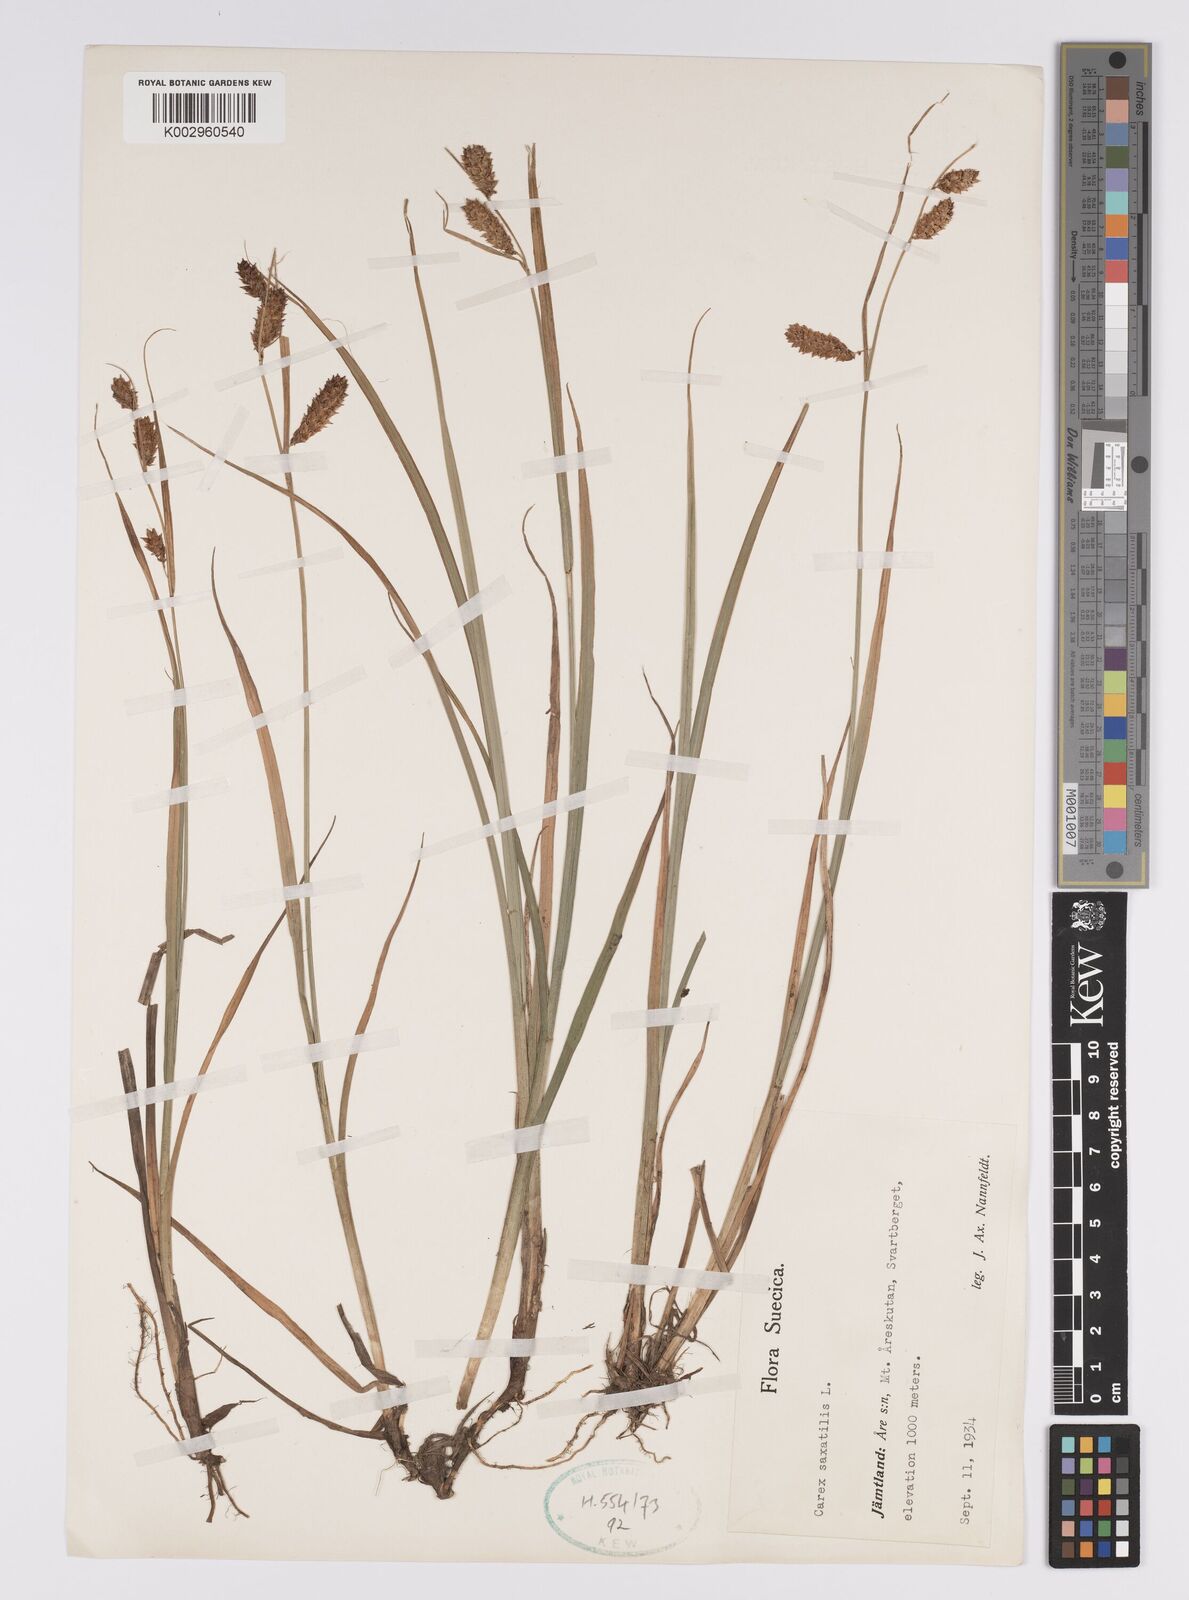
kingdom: Plantae
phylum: Tracheophyta
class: Liliopsida
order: Poales
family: Cyperaceae
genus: Carex
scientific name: Carex saxatilis
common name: Russet sedge
